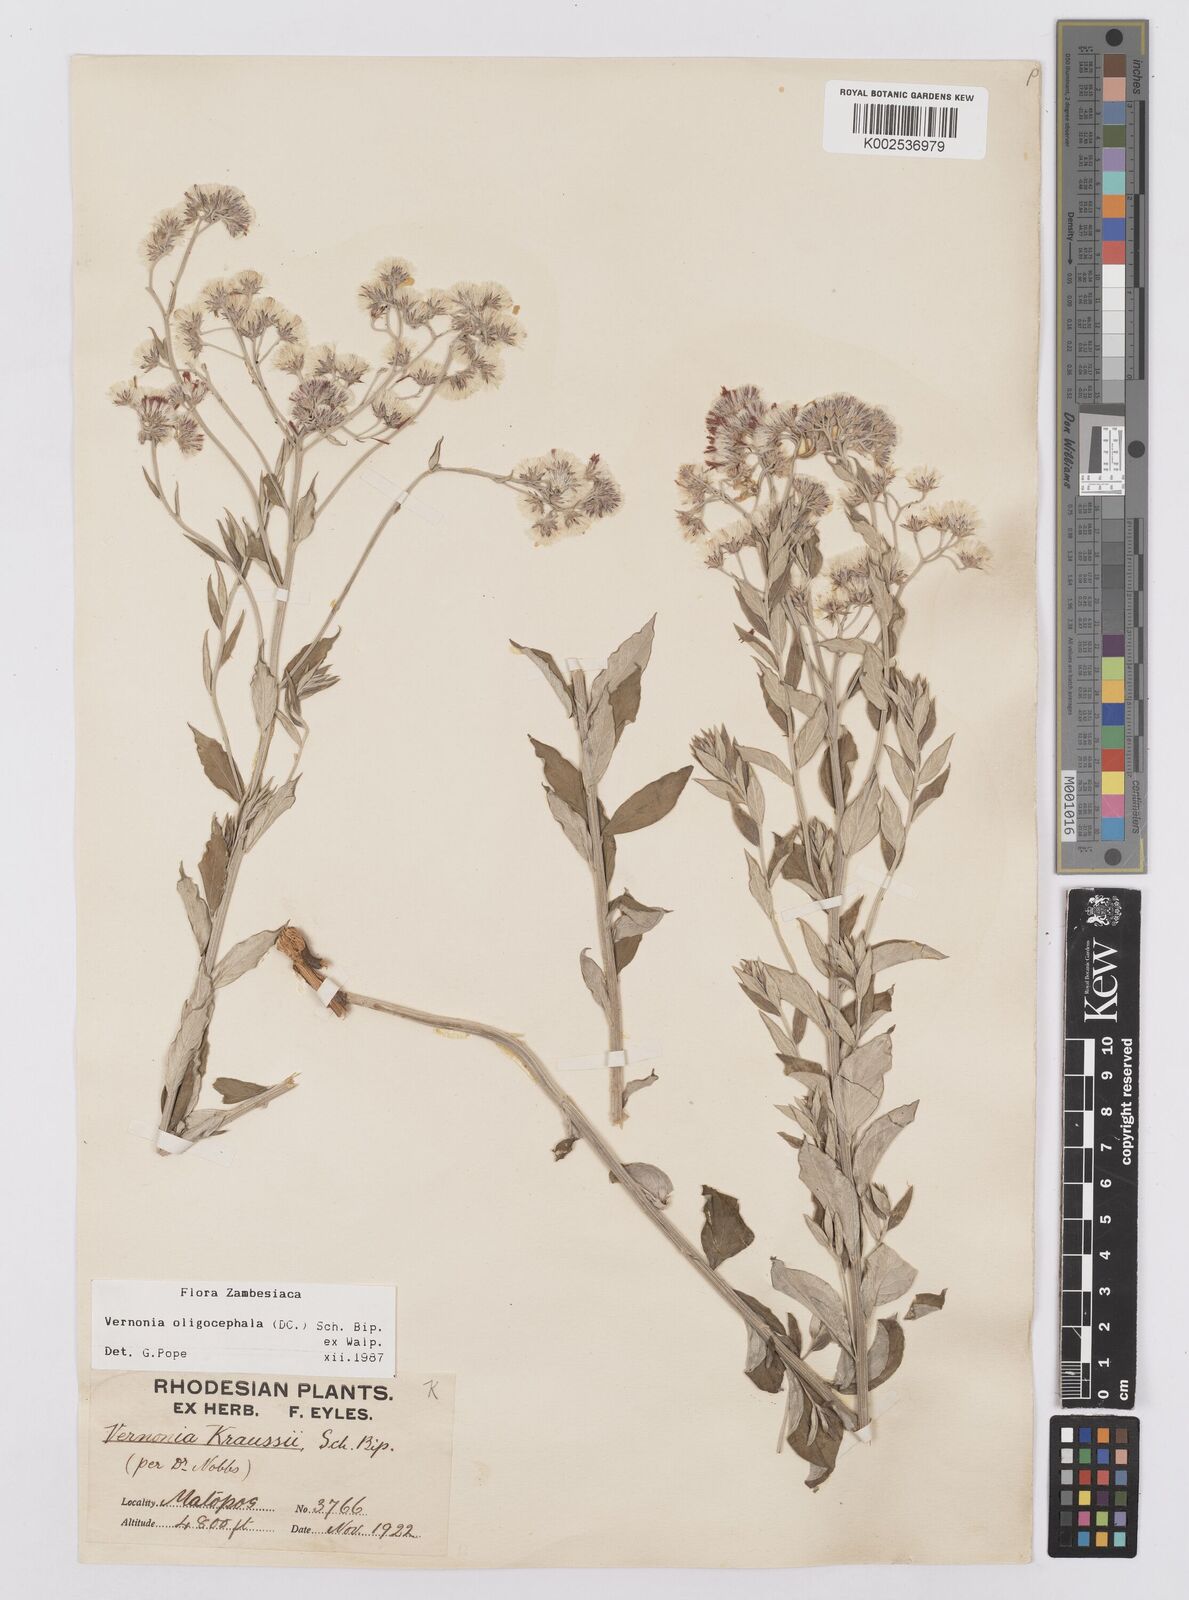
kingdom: Plantae
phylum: Tracheophyta
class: Magnoliopsida
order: Asterales
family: Asteraceae
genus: Hilliardiella
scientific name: Hilliardiella oligocephala
